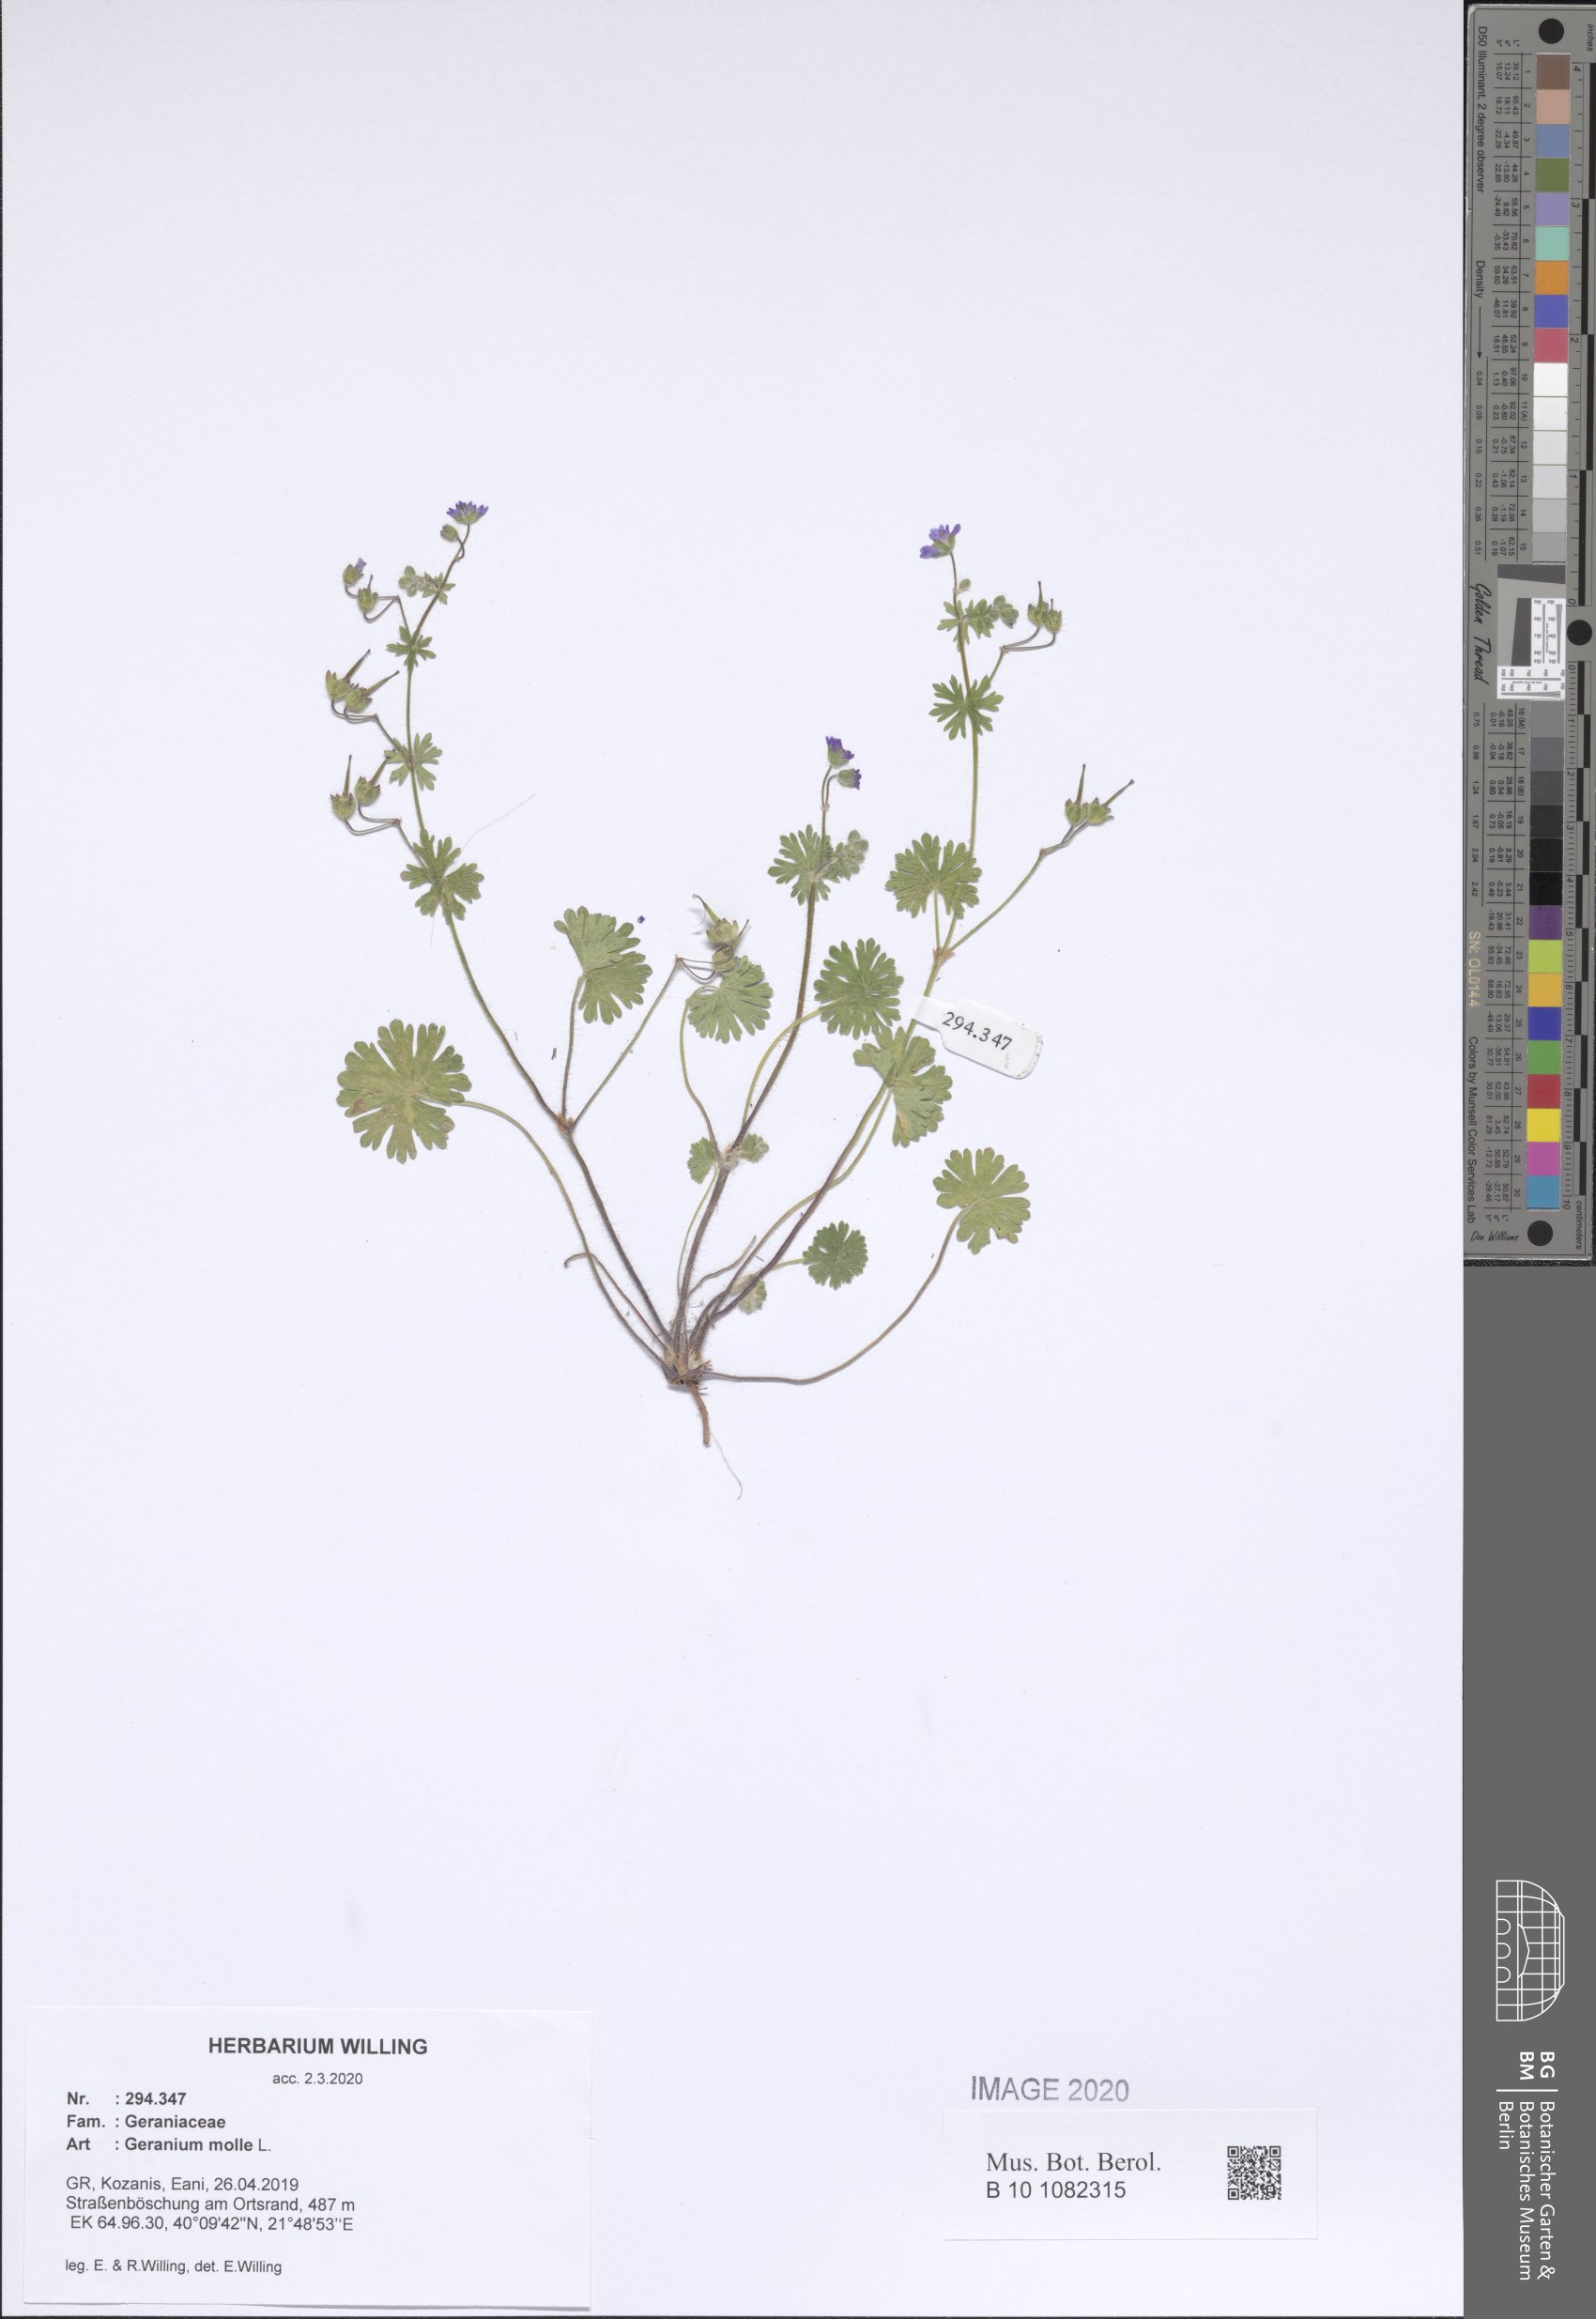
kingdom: Plantae
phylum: Tracheophyta
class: Magnoliopsida
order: Geraniales
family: Geraniaceae
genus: Geranium
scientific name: Geranium molle
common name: Dove's-foot crane's-bill
